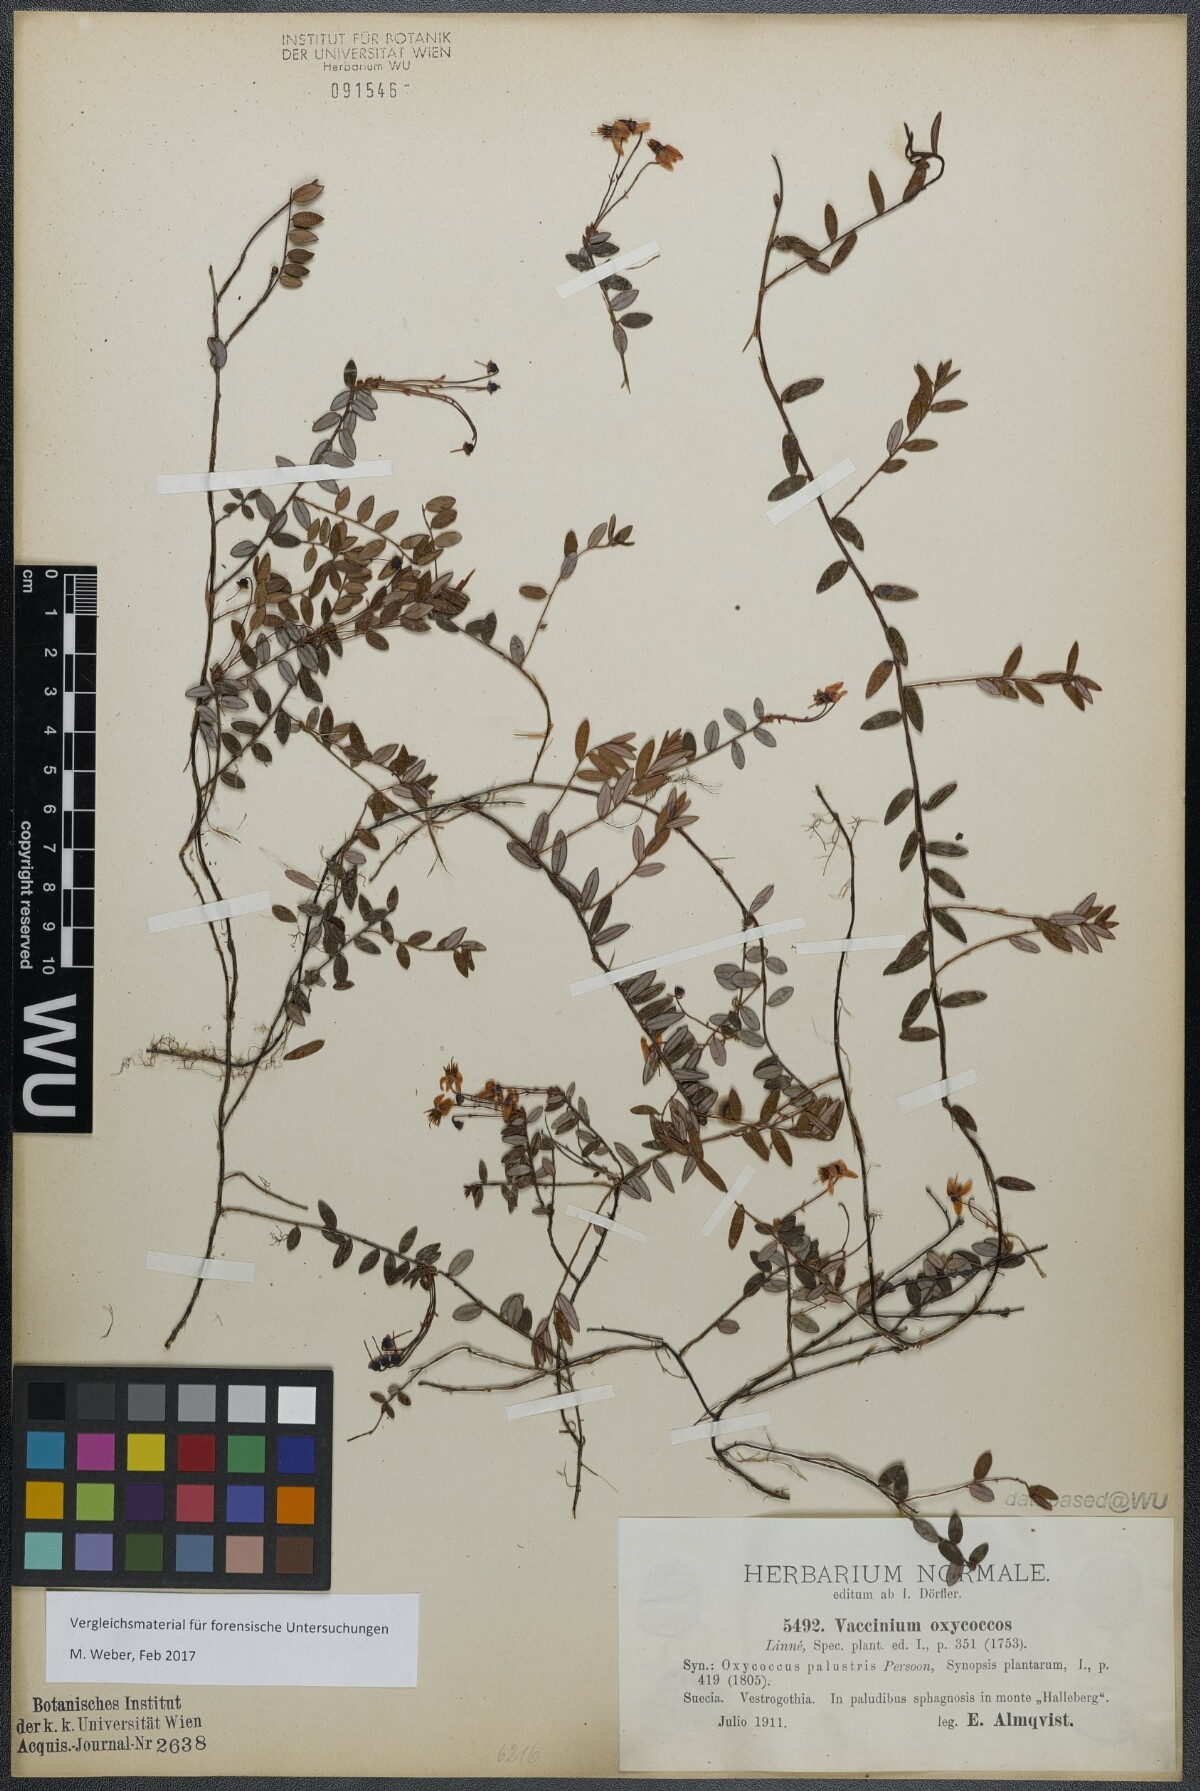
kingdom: Plantae
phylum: Tracheophyta
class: Magnoliopsida
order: Ericales
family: Ericaceae
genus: Vaccinium
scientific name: Vaccinium oxycoccos
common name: Cranberry
